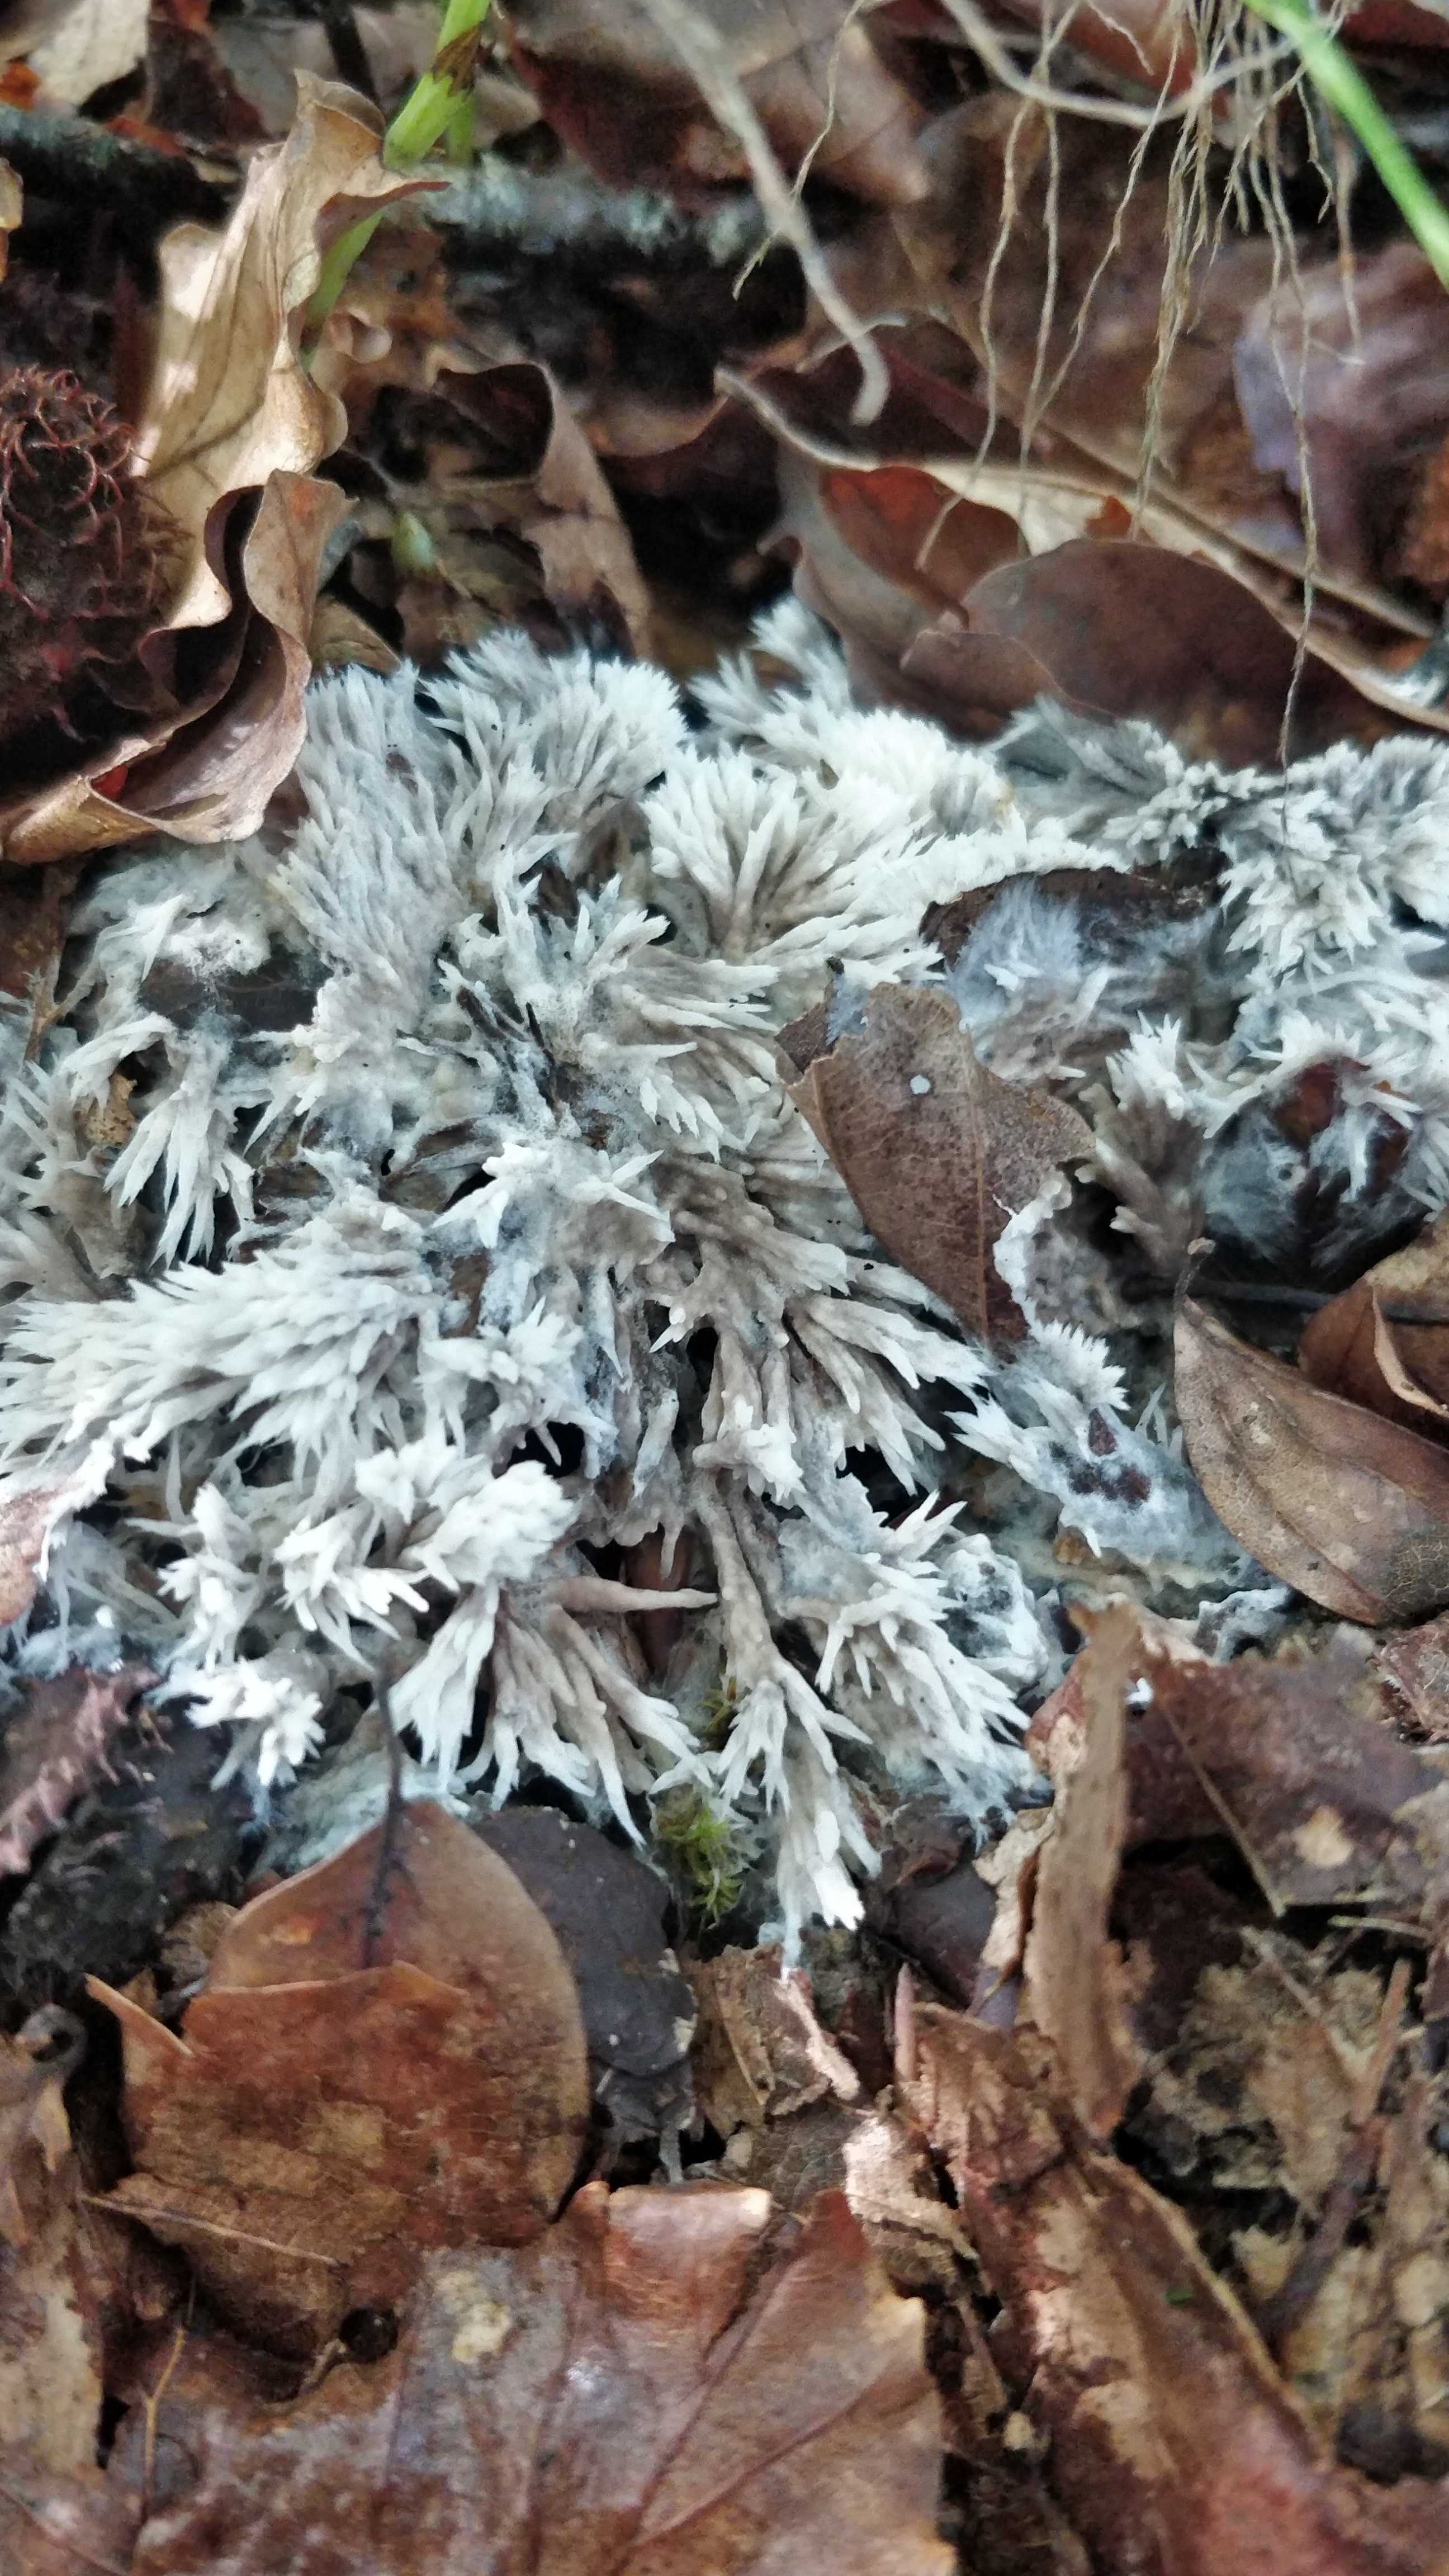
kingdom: Fungi
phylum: Basidiomycota
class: Agaricomycetes
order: Thelephorales
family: Thelephoraceae
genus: Thelephora
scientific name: Thelephora penicillata
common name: fladtrådt frynsesvamp
